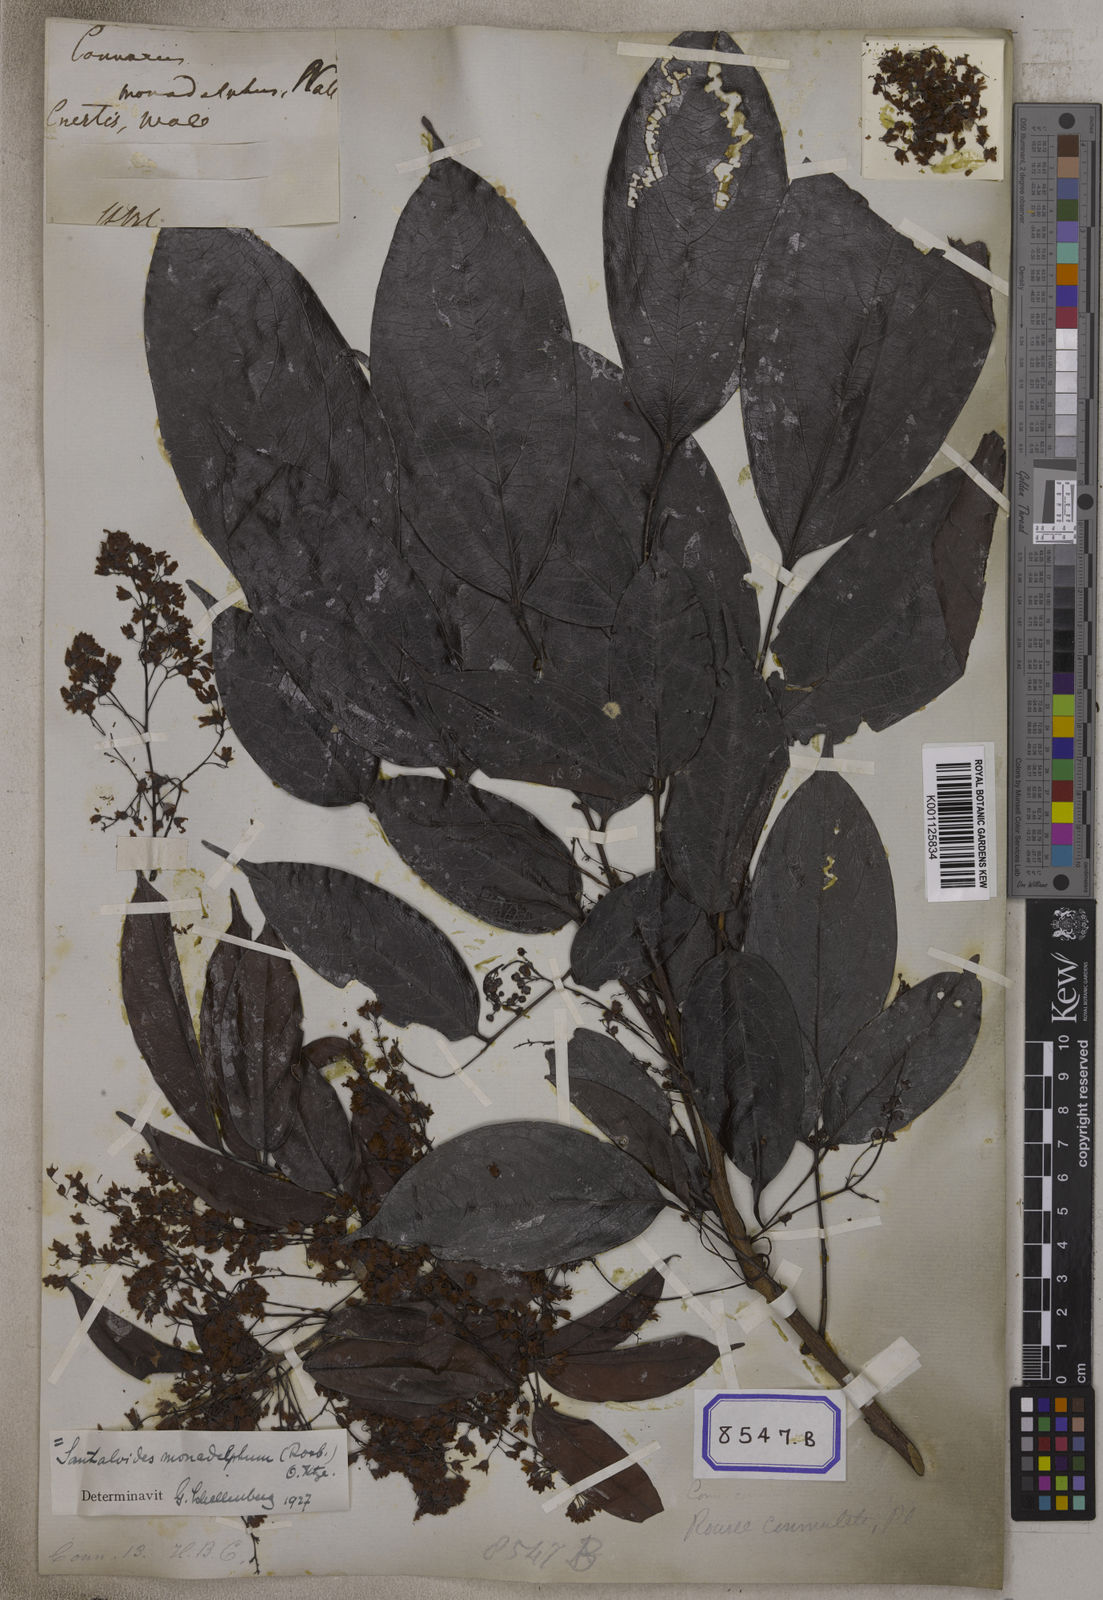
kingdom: Plantae
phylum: Tracheophyta
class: Magnoliopsida
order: Oxalidales
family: Connaraceae
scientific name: Connaraceae
